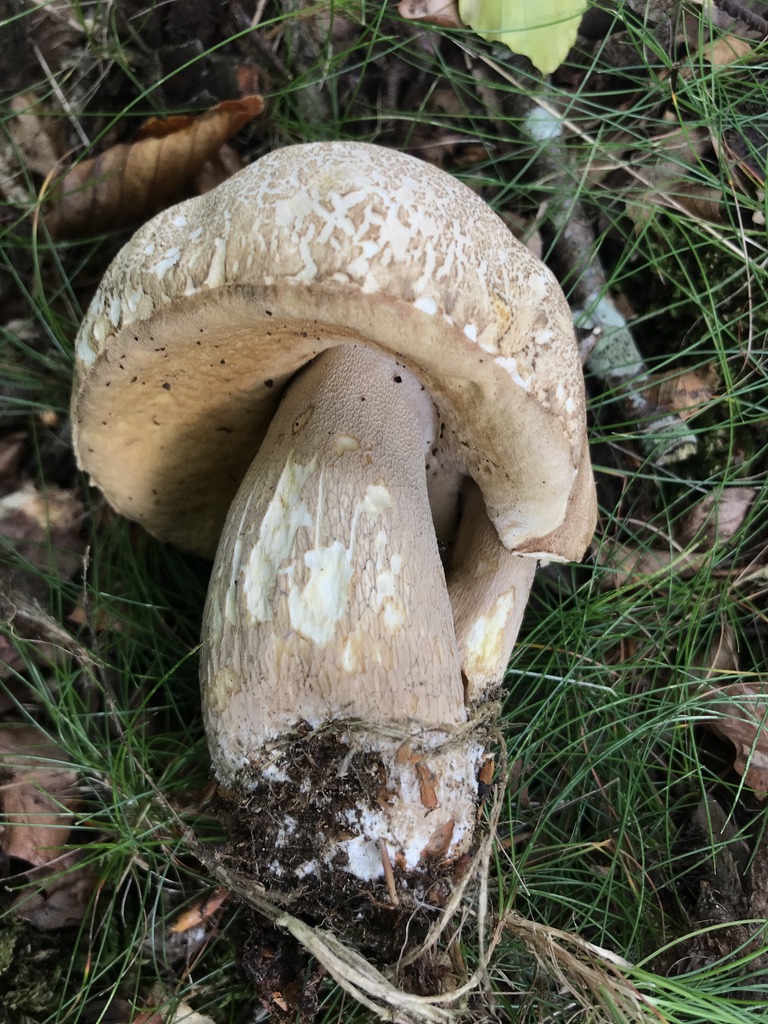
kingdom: Fungi
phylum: Basidiomycota
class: Agaricomycetes
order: Boletales
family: Boletaceae
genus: Boletus
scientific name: Boletus reticulatus
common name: sommer-rørhat
